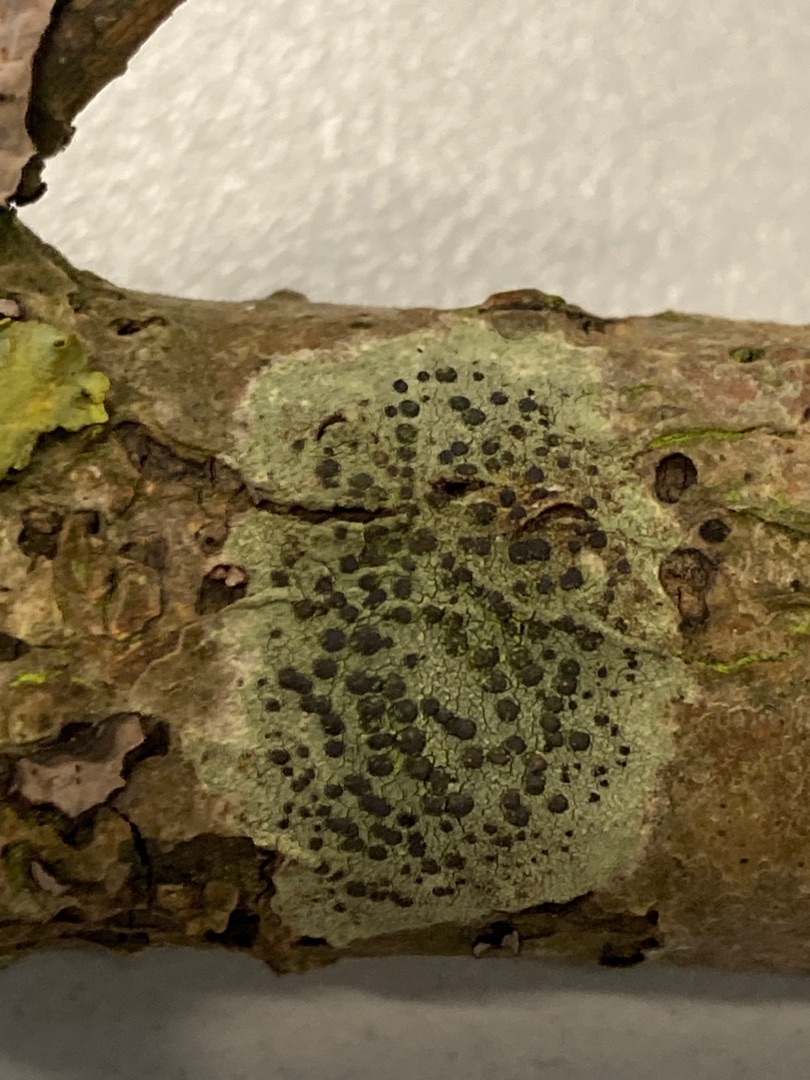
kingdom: Fungi
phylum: Ascomycota
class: Lecanoromycetes
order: Lecanorales
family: Lecanoraceae
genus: Lecidella
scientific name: Lecidella elaeochroma
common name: Grågrøn skivelav
